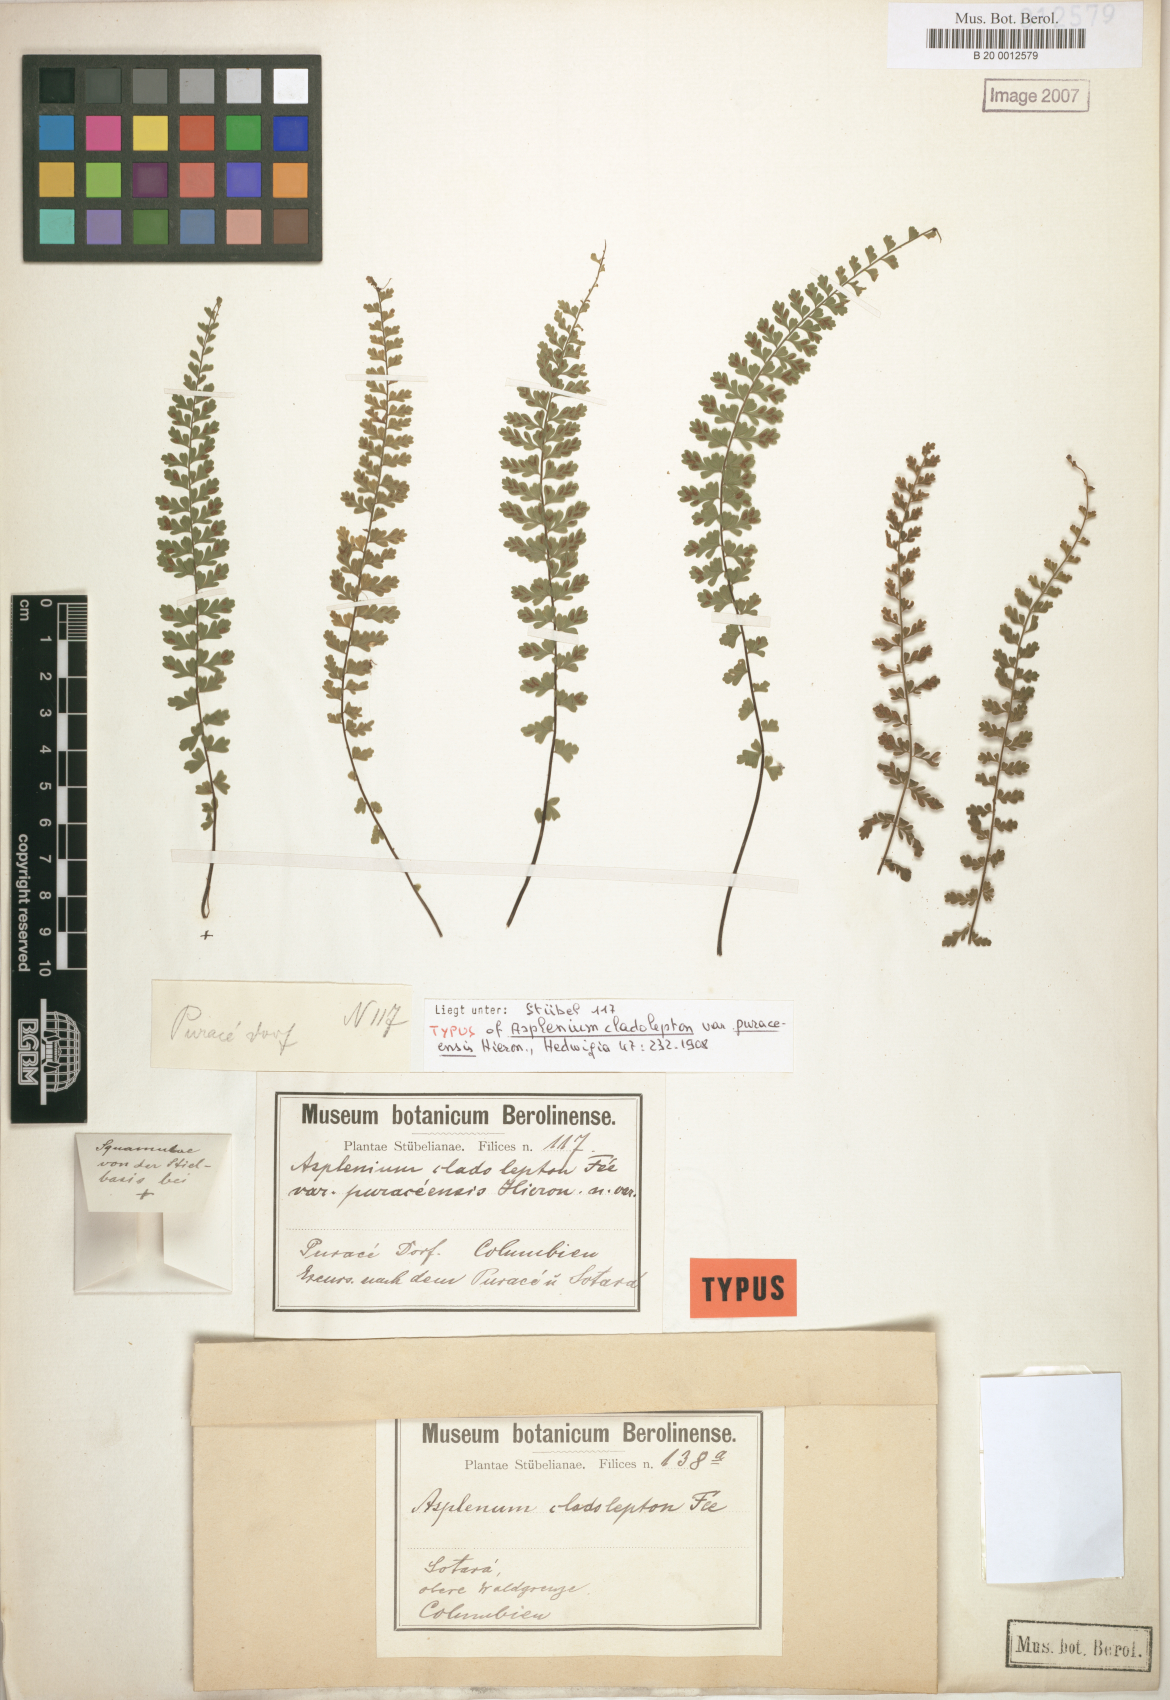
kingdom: Plantae
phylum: Tracheophyta
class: Polypodiopsida
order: Polypodiales
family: Aspleniaceae
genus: Asplenium
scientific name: Asplenium haenkeanum
